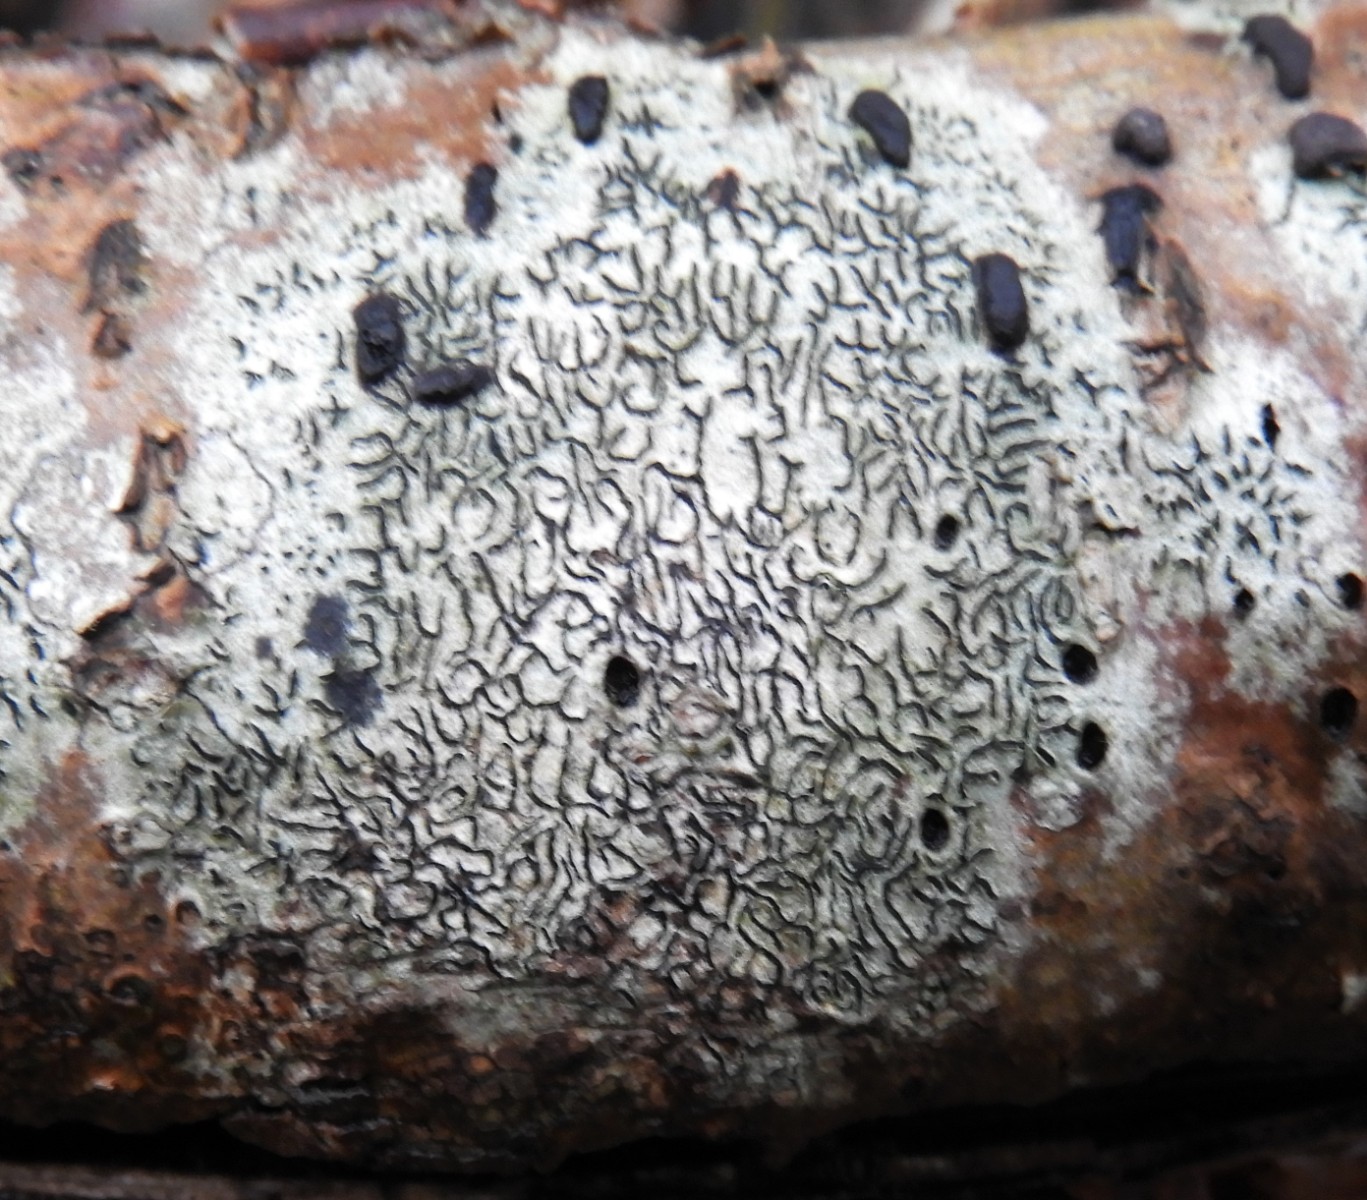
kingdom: Fungi
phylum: Ascomycota
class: Lecanoromycetes
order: Ostropales
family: Graphidaceae
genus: Graphis
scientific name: Graphis scripta
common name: almindelig skriftlav
